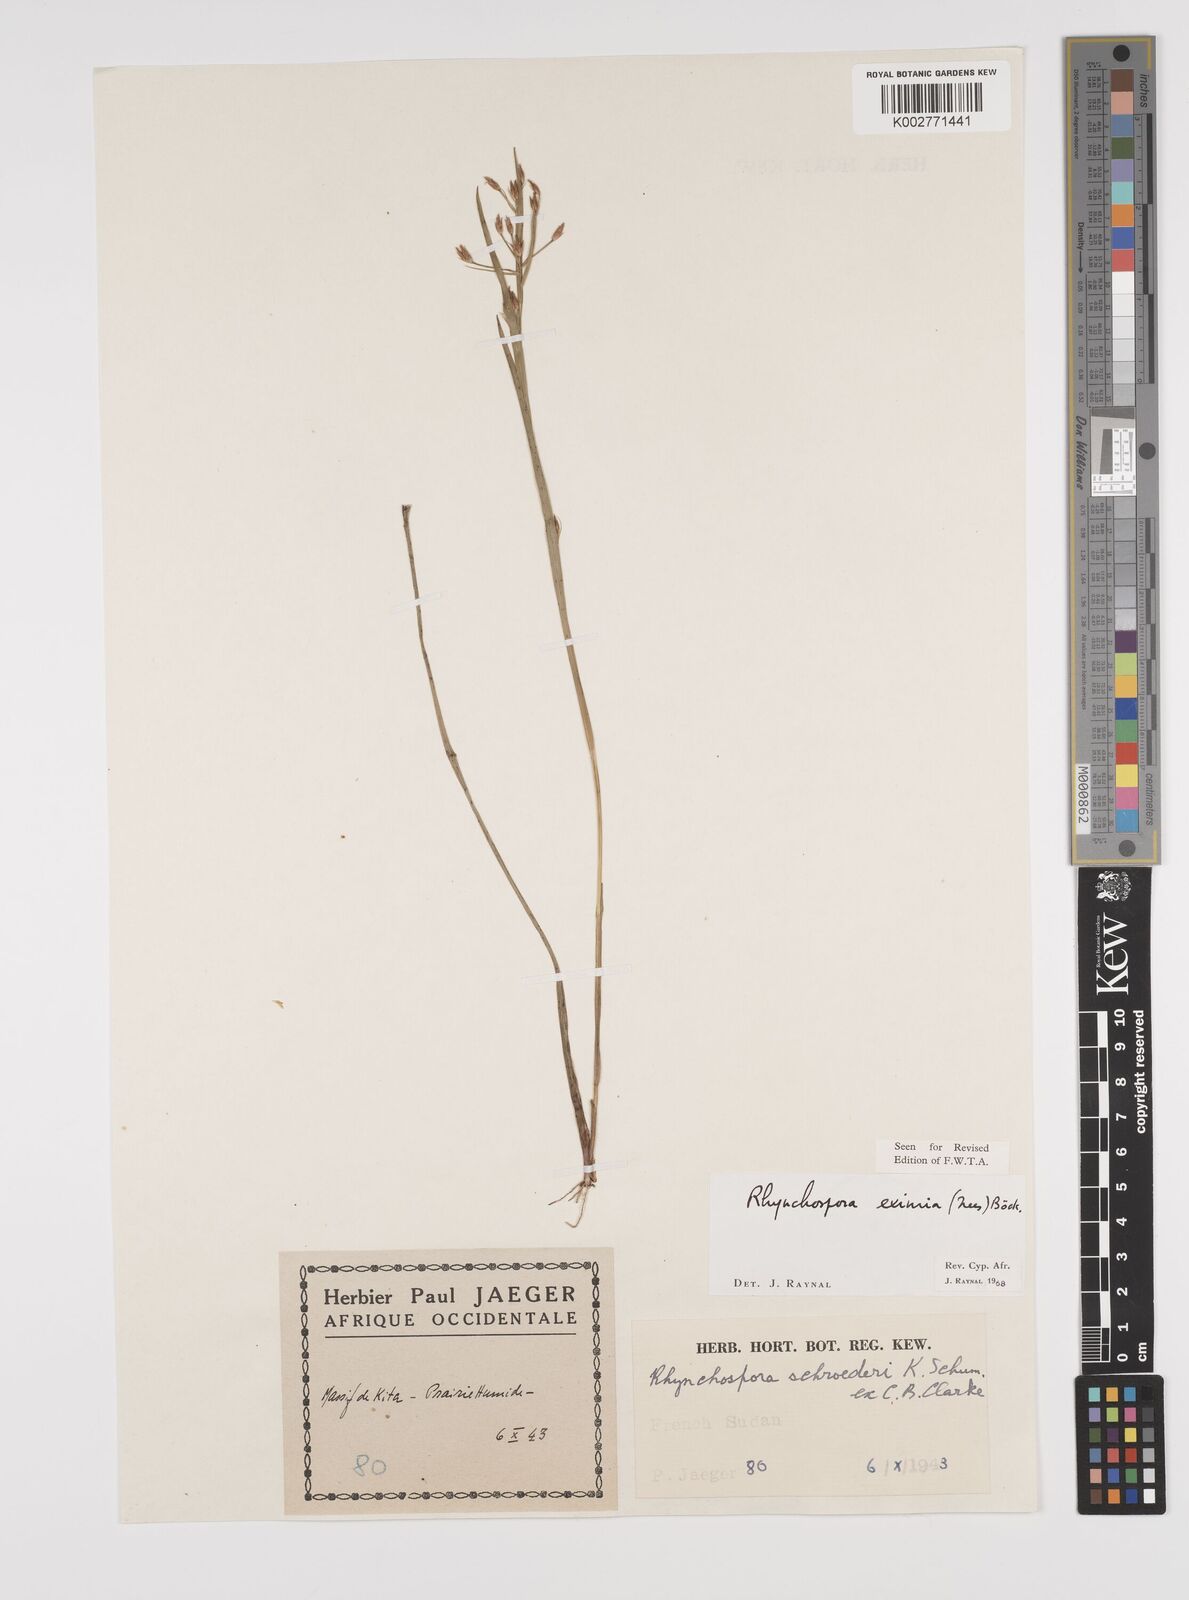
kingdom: Plantae
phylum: Tracheophyta
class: Liliopsida
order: Poales
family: Cyperaceae
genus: Rhynchospora
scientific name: Rhynchospora eximia
